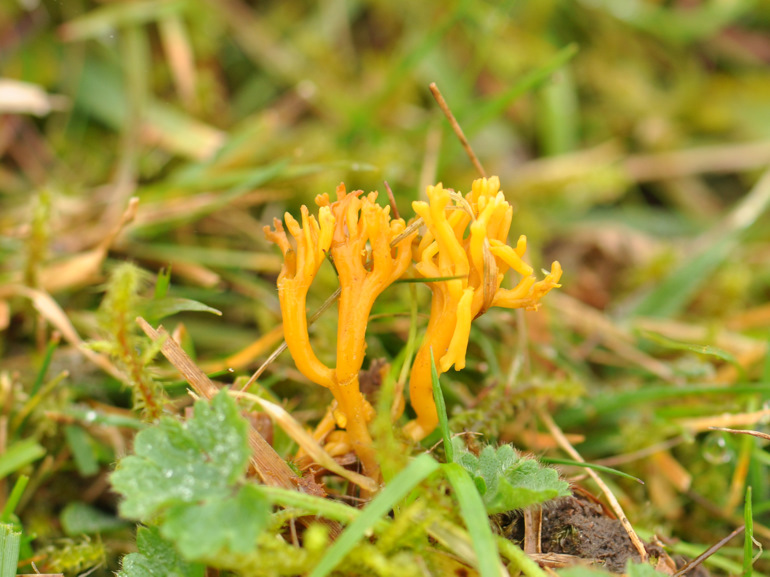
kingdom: Fungi
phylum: Basidiomycota
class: Agaricomycetes
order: Agaricales
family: Clavariaceae
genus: Clavulinopsis
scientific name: Clavulinopsis corniculata
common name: eng-køllesvamp
